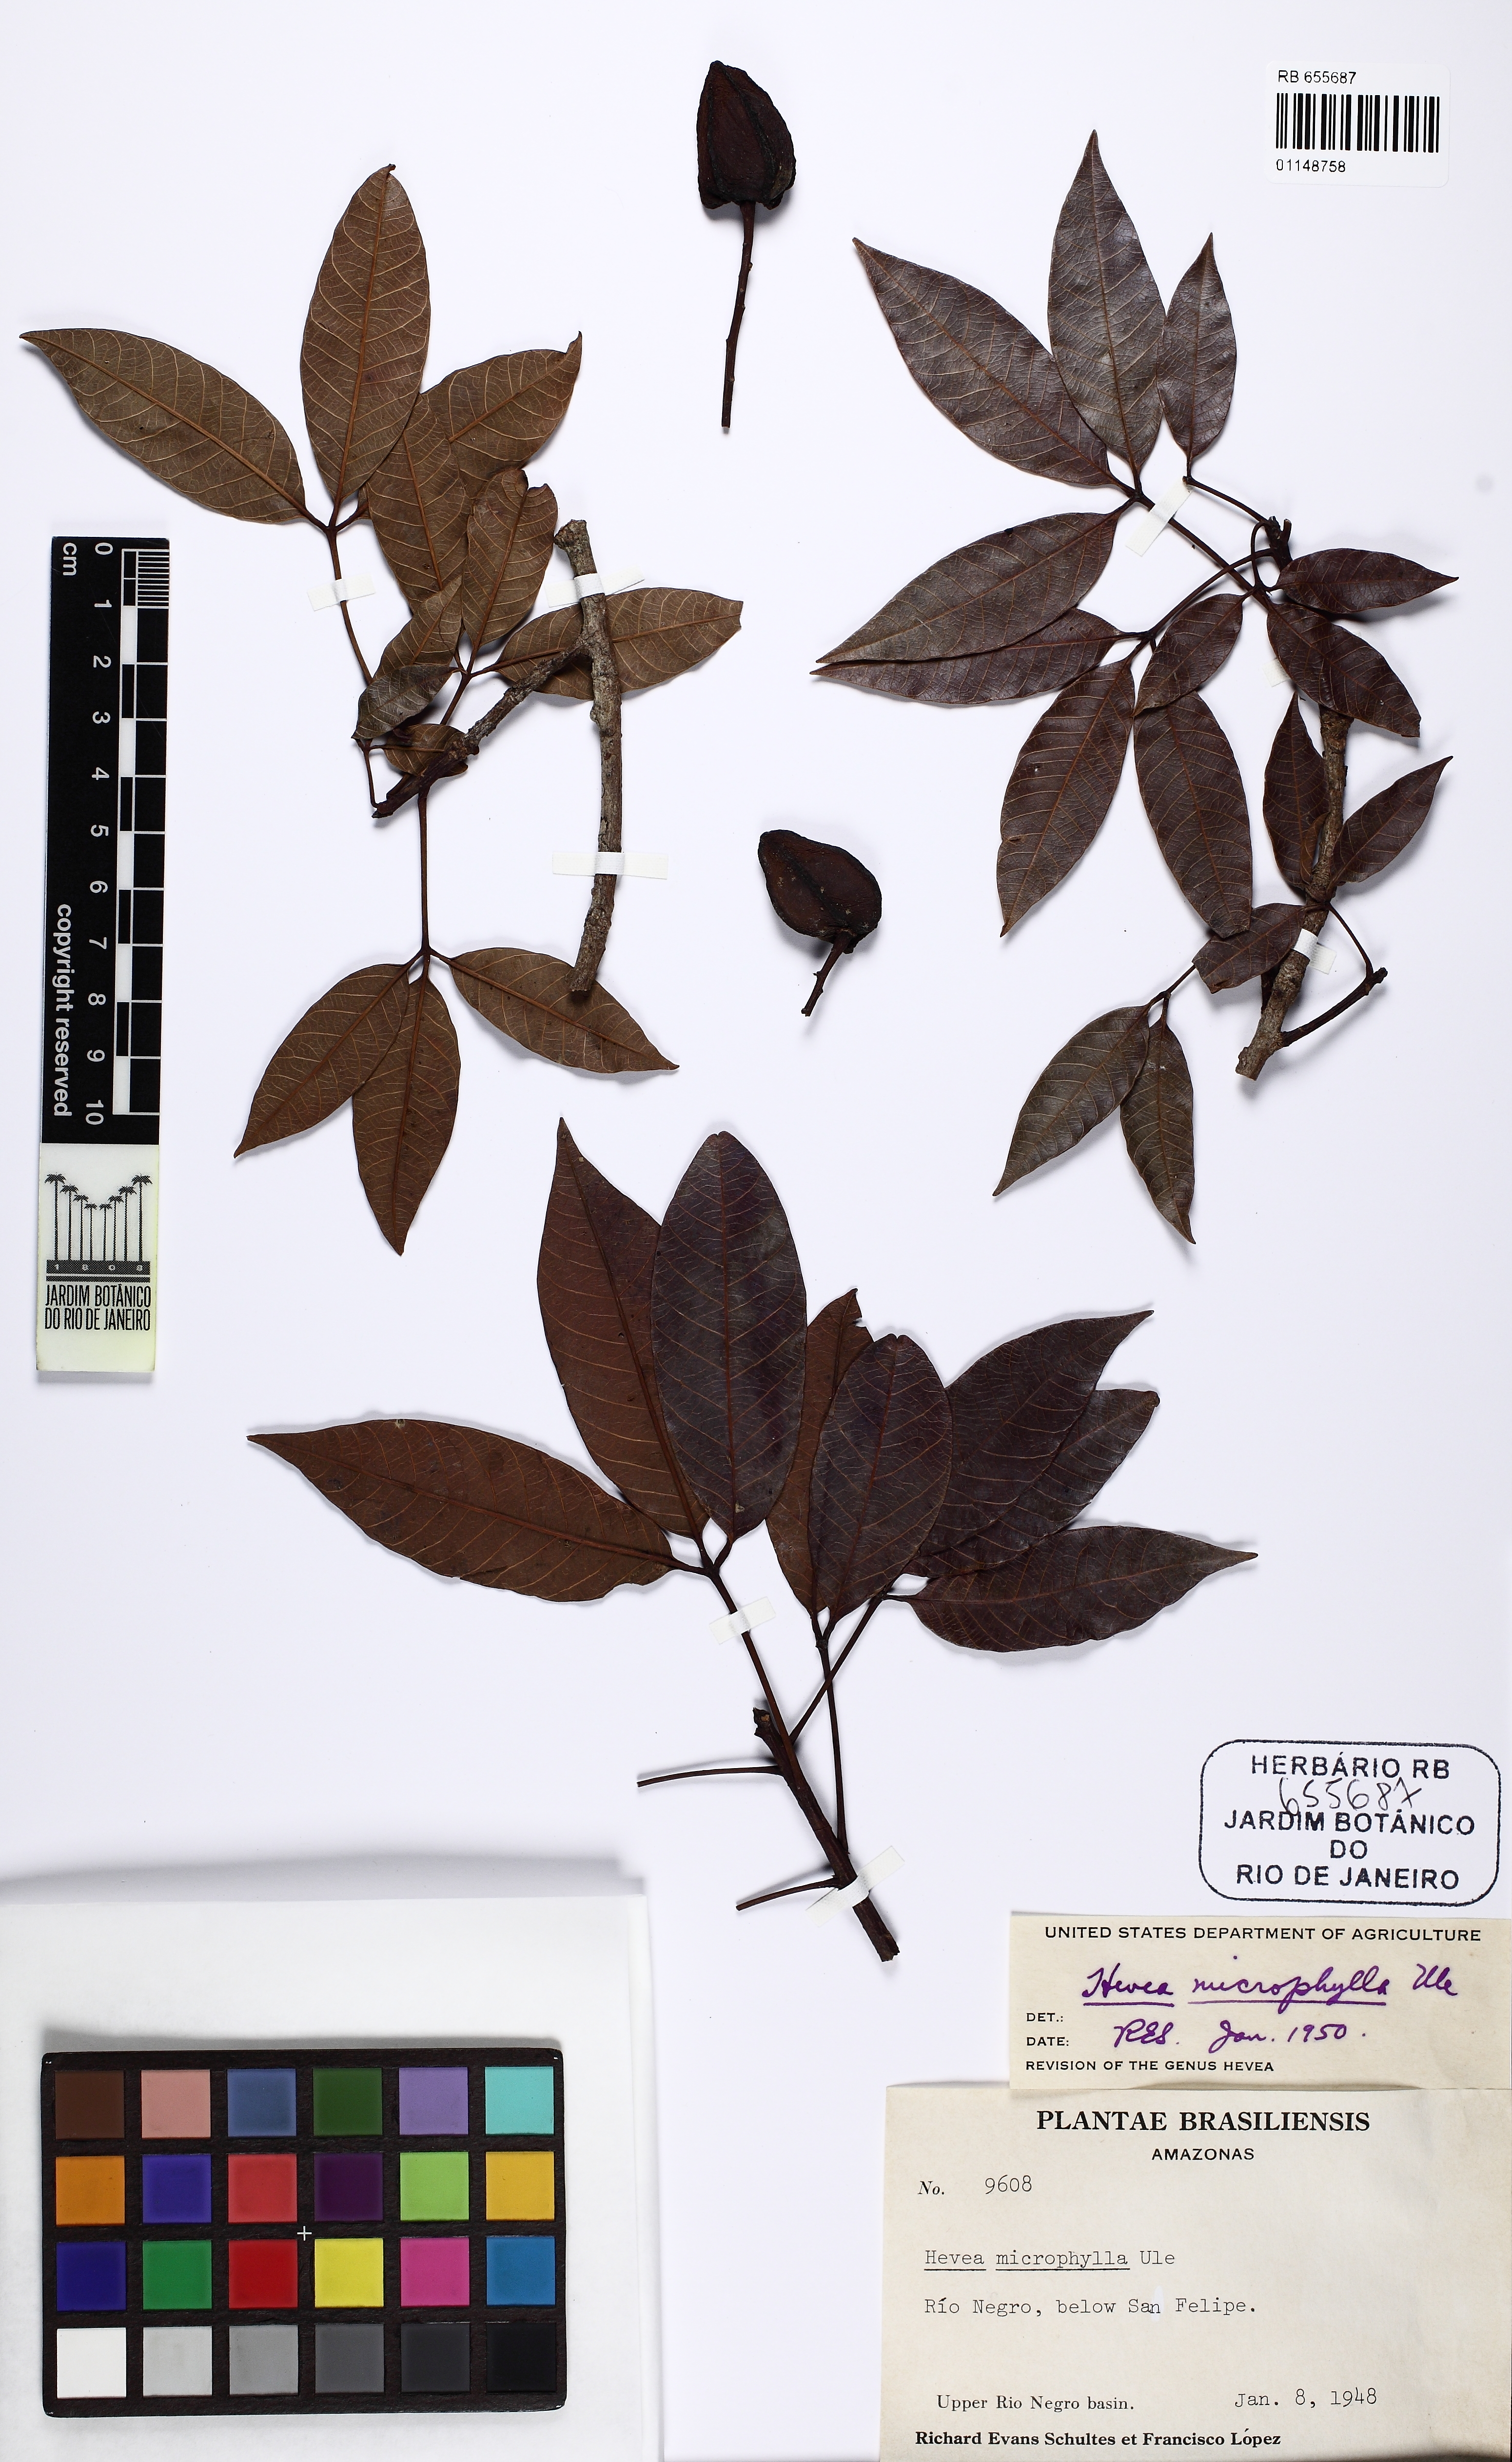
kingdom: Plantae
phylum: Tracheophyta
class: Magnoliopsida
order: Malpighiales
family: Euphorbiaceae
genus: Hevea
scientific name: Hevea microphylla
